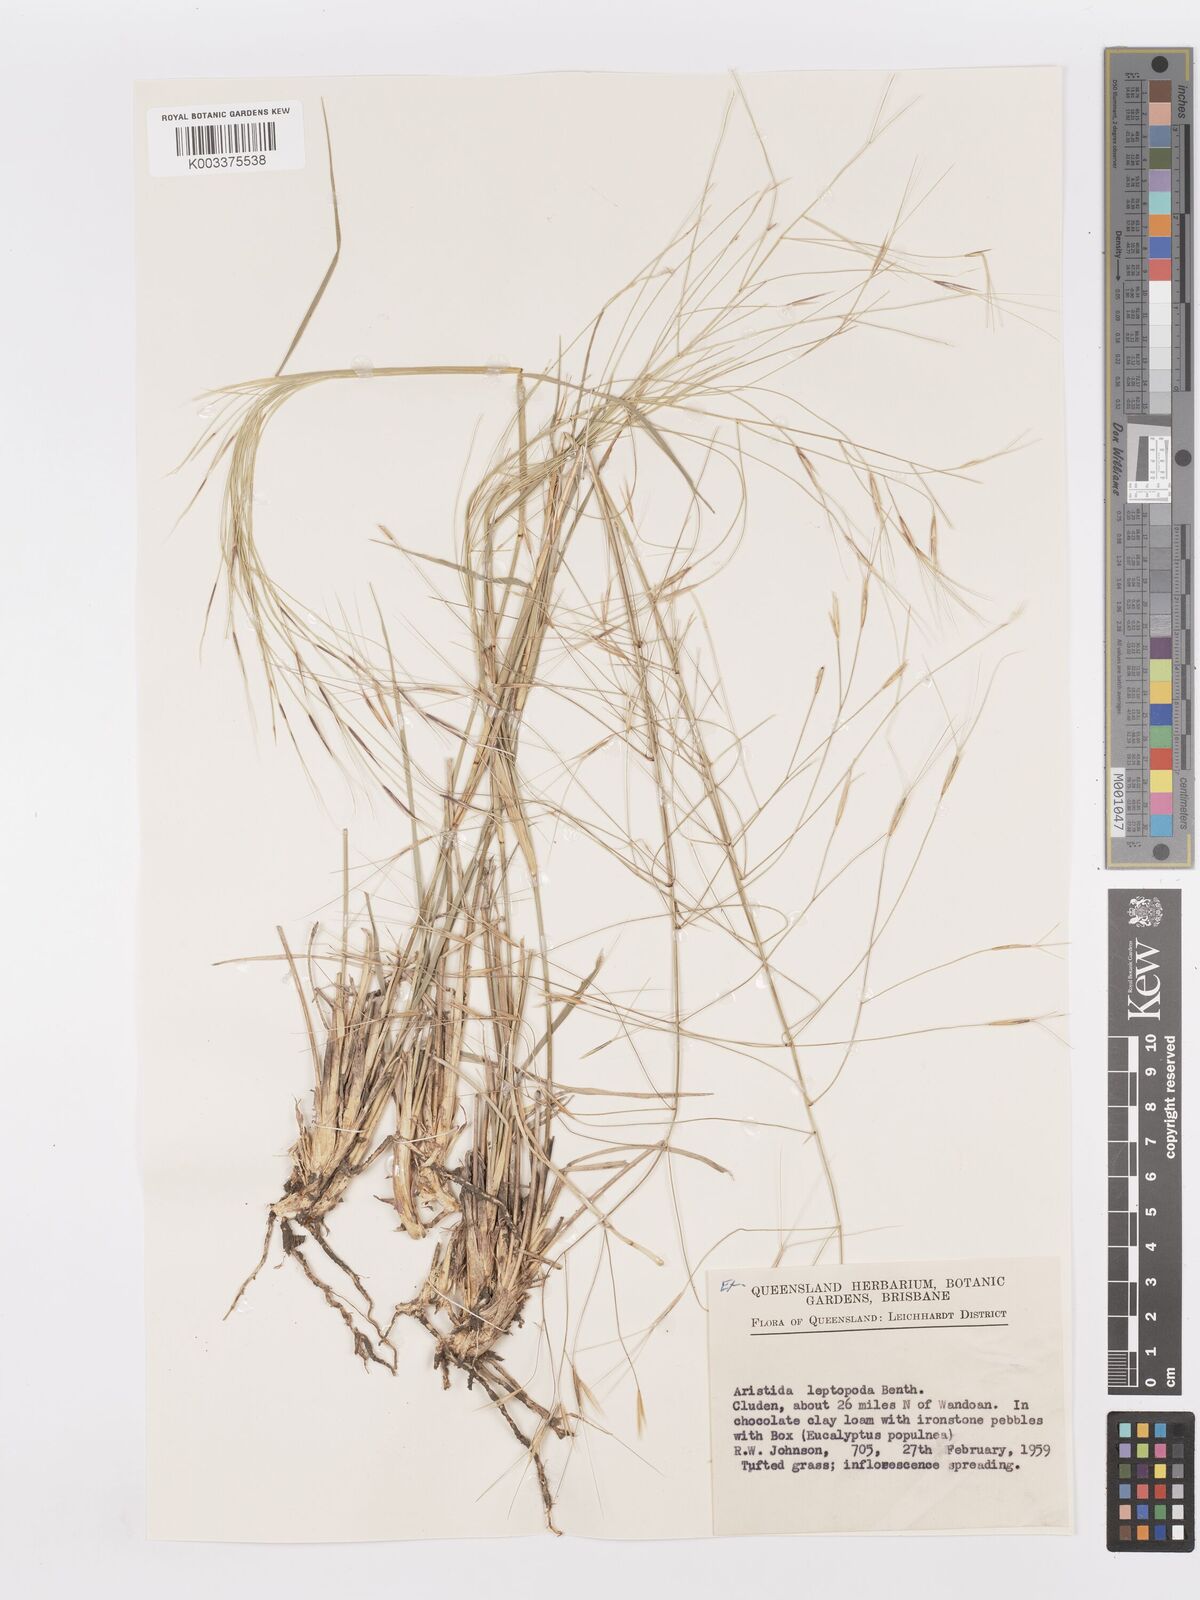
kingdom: Plantae
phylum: Tracheophyta
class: Liliopsida
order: Poales
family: Poaceae
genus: Aristida
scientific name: Aristida leptopoda
